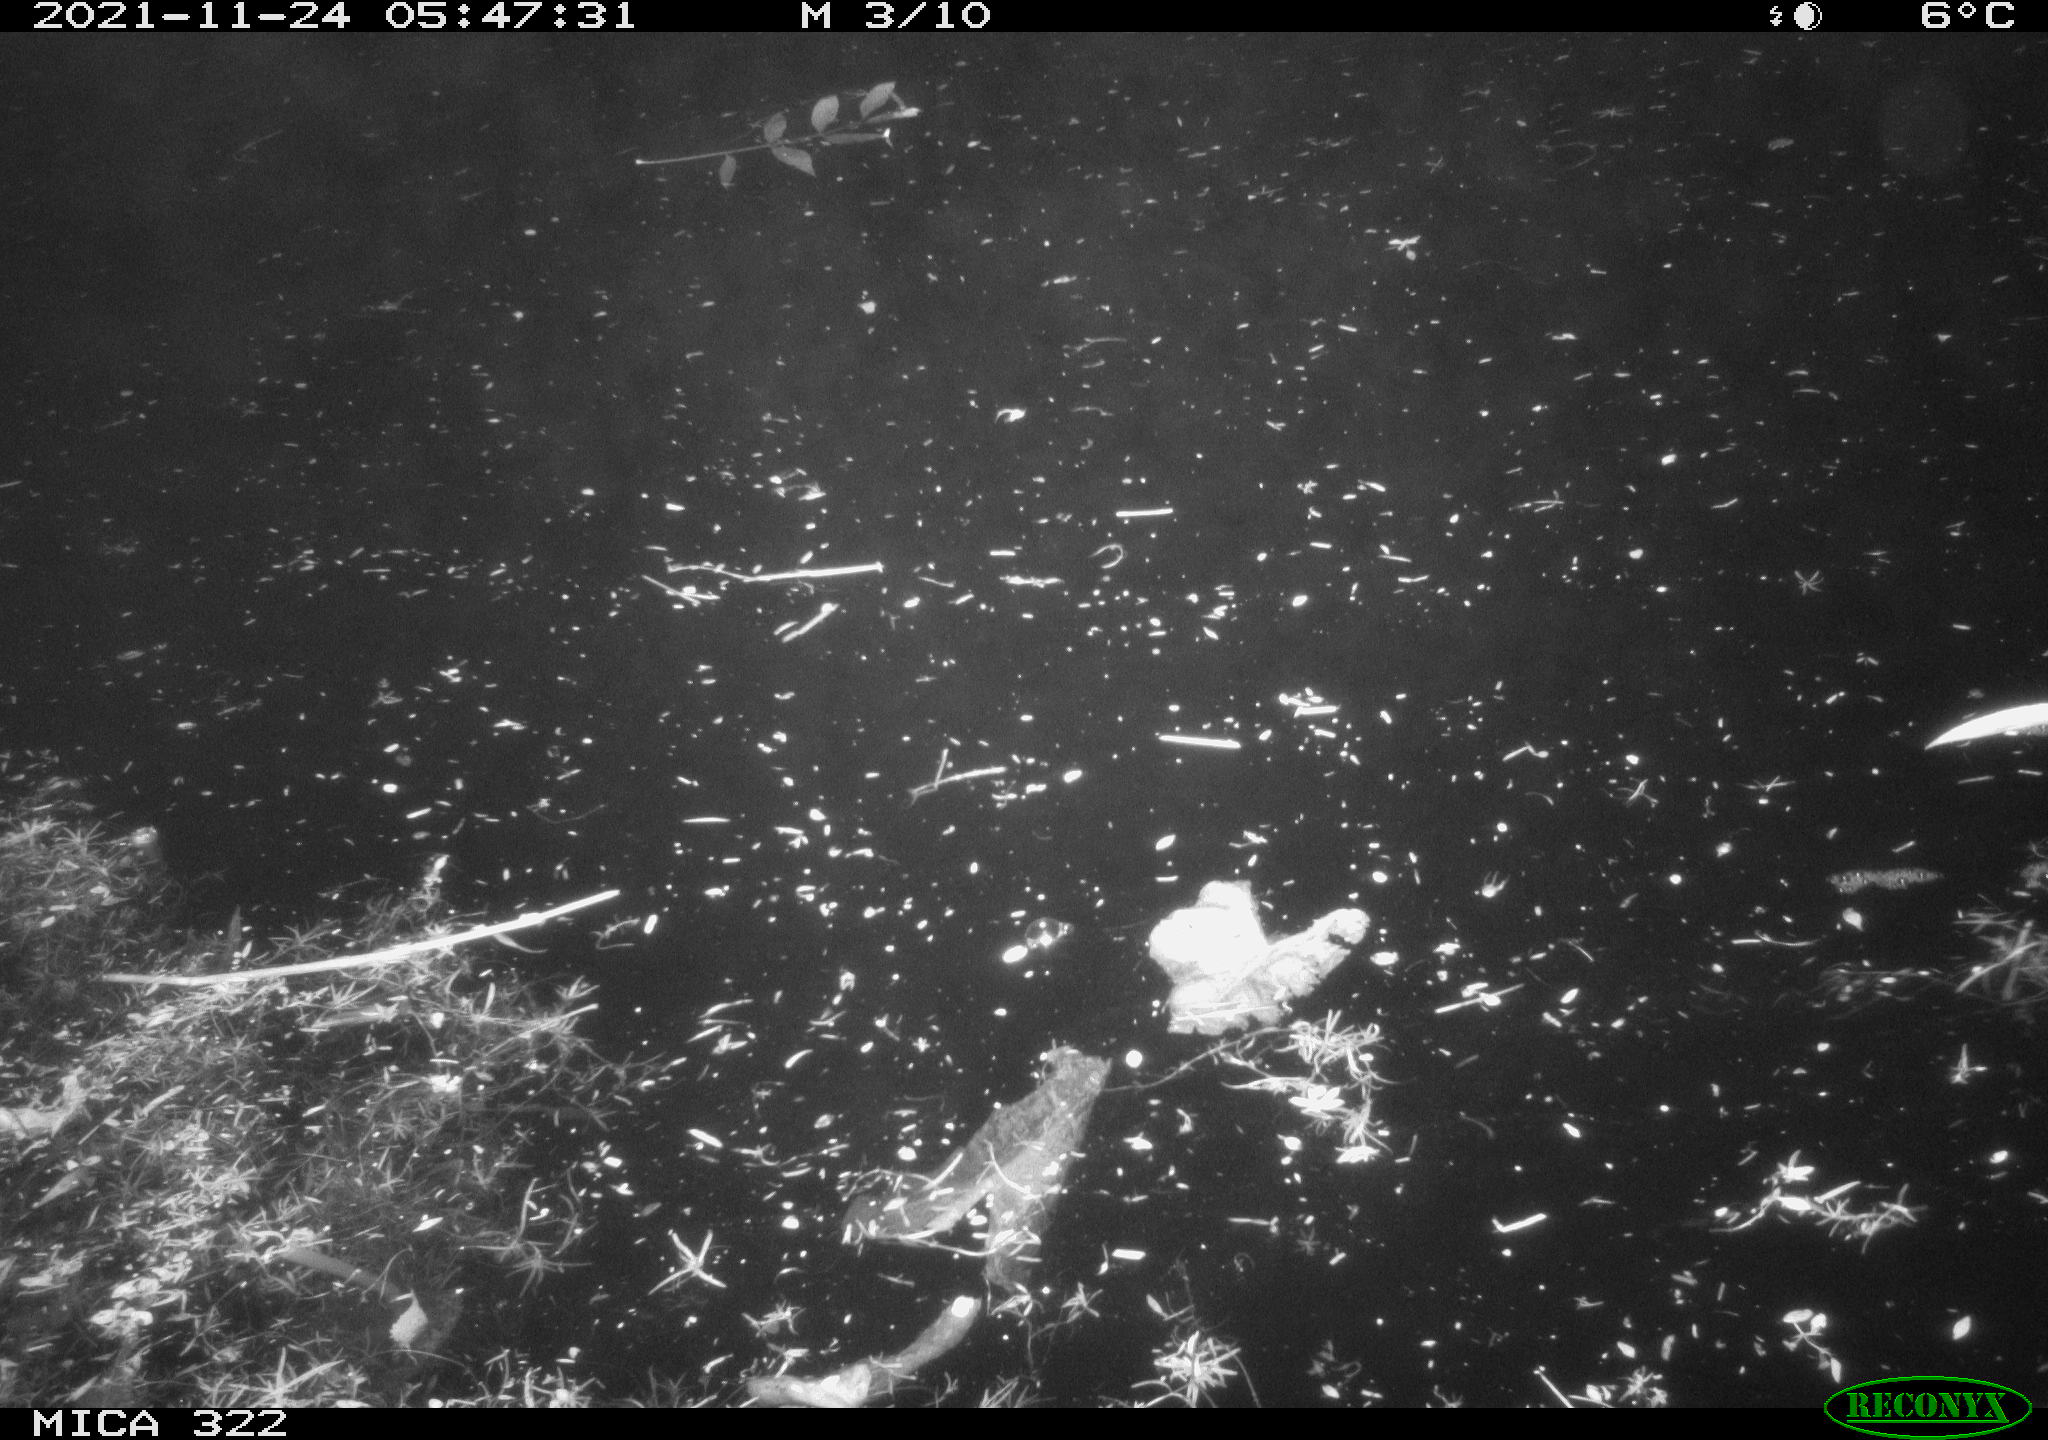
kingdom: Animalia
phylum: Chordata
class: Aves
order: Anseriformes
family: Anatidae
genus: Anas
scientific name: Anas platyrhynchos
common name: Mallard
